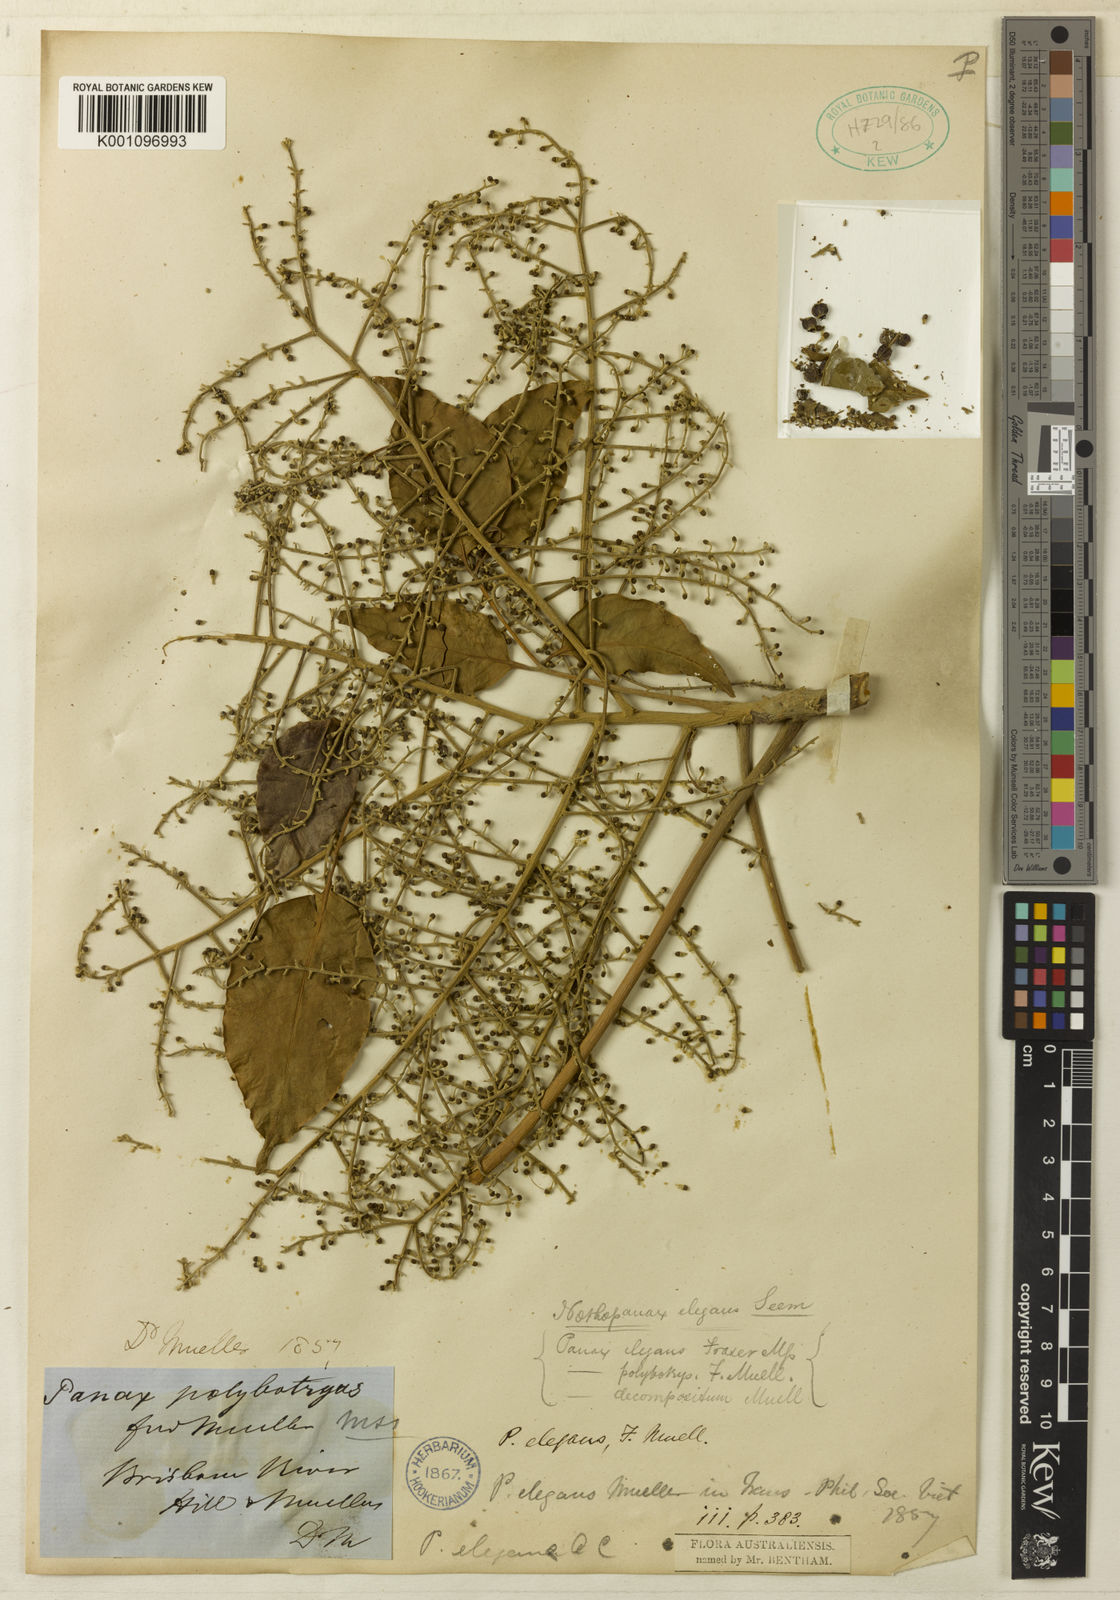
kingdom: Plantae
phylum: Tracheophyta
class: Magnoliopsida
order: Apiales
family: Araliaceae
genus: Polyscias
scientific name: Polyscias elegans
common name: Mowbulan whitewood
